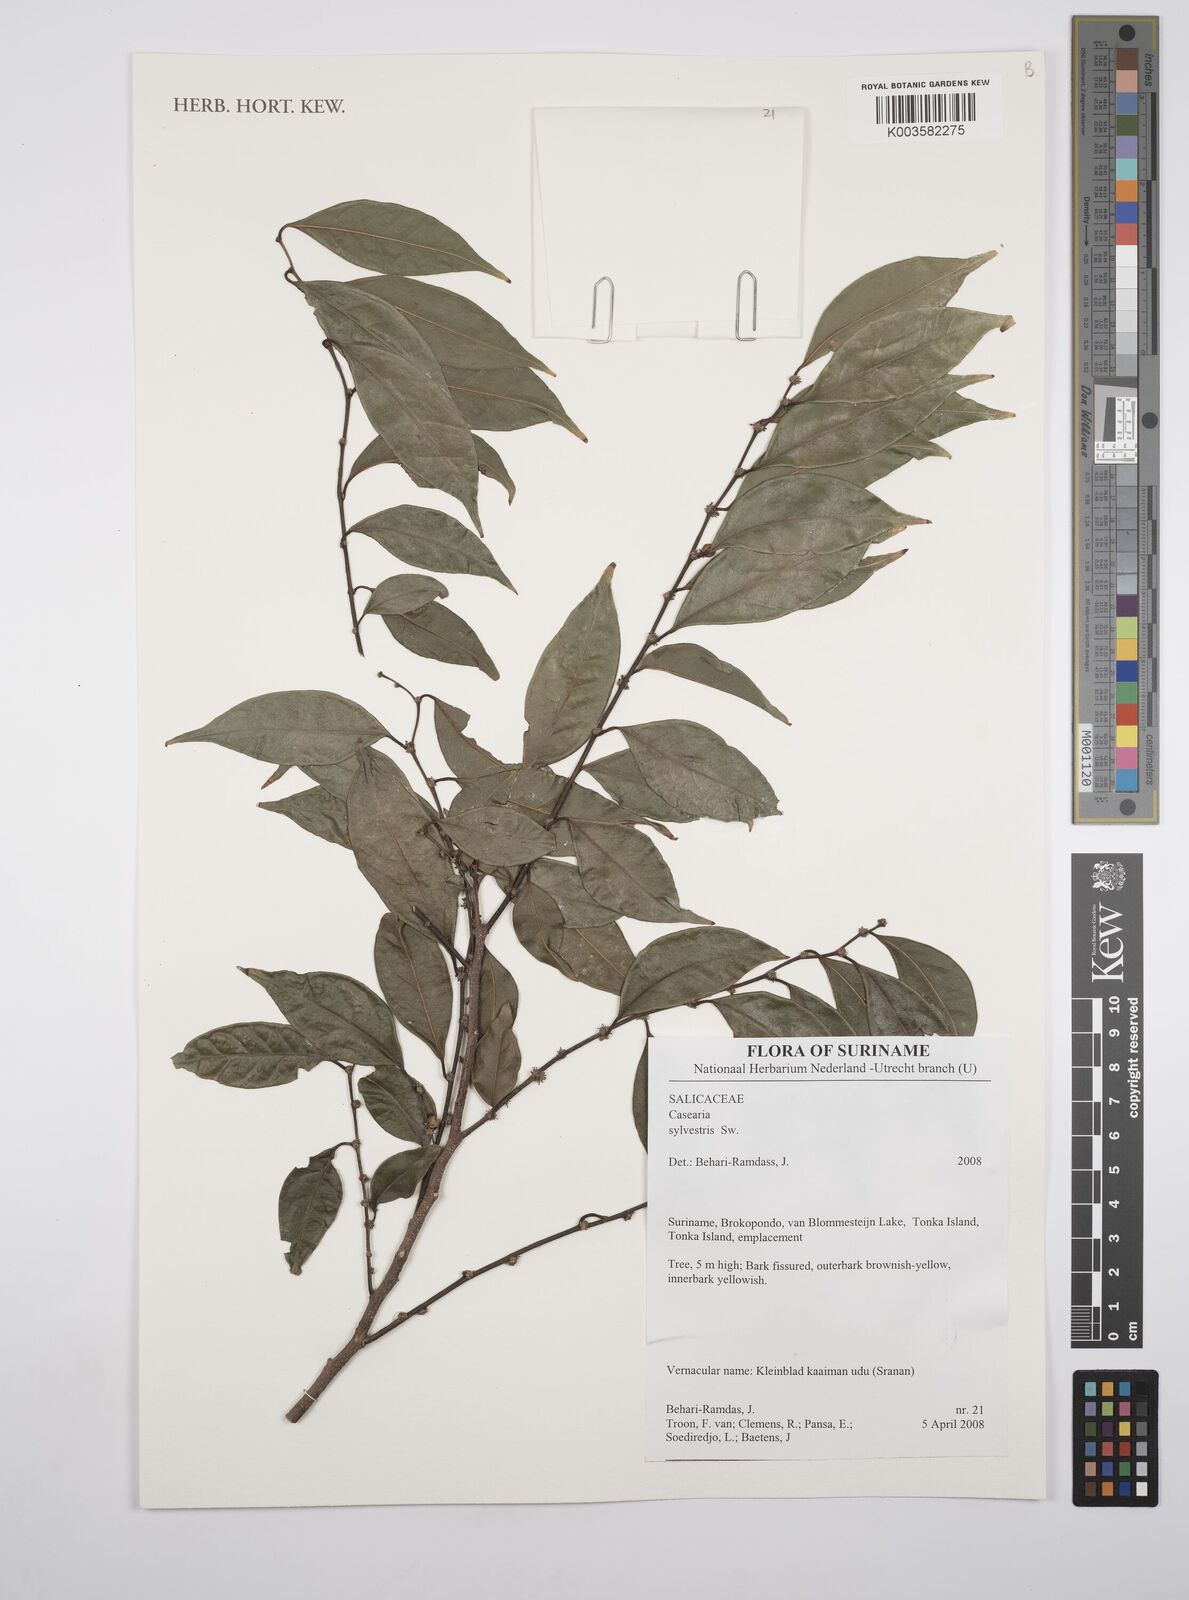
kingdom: Plantae
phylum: Tracheophyta
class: Magnoliopsida
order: Malpighiales
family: Salicaceae
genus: Casearia
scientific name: Casearia sylvestris
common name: Wild sage
